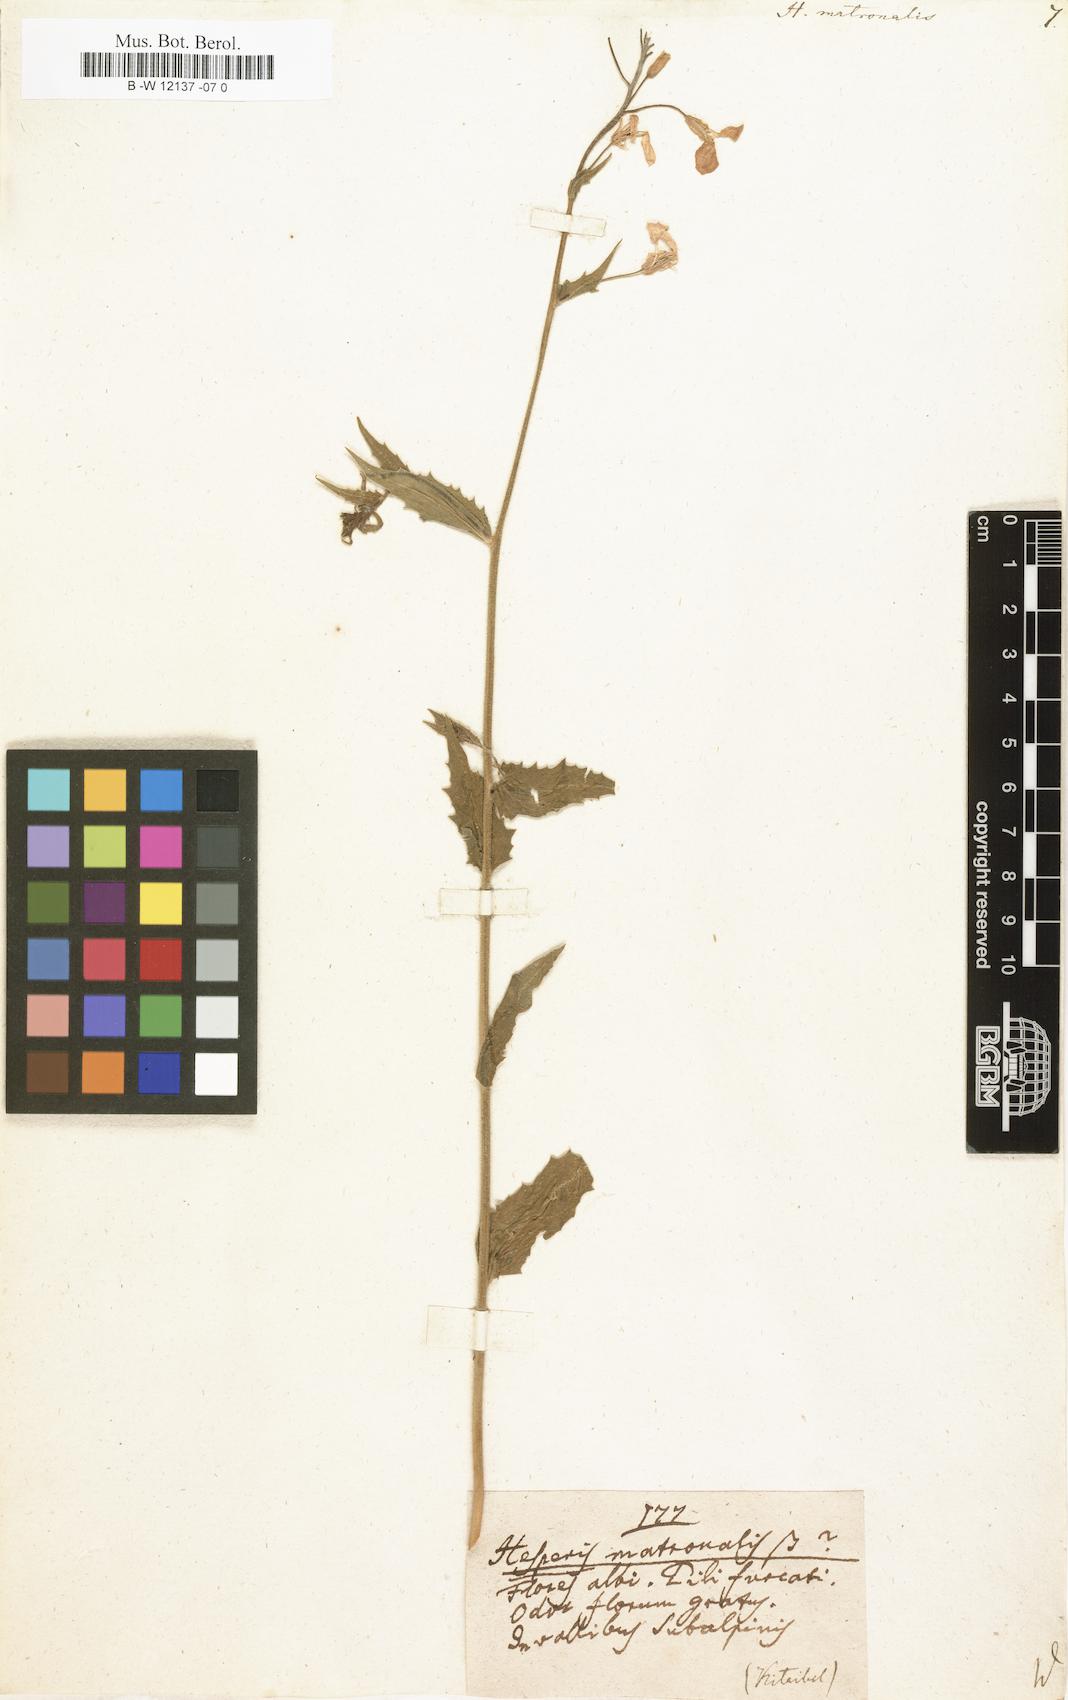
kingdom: Plantae
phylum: Tracheophyta
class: Magnoliopsida
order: Brassicales
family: Brassicaceae
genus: Hesperis
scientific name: Hesperis matronalis
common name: Dame's-violet
